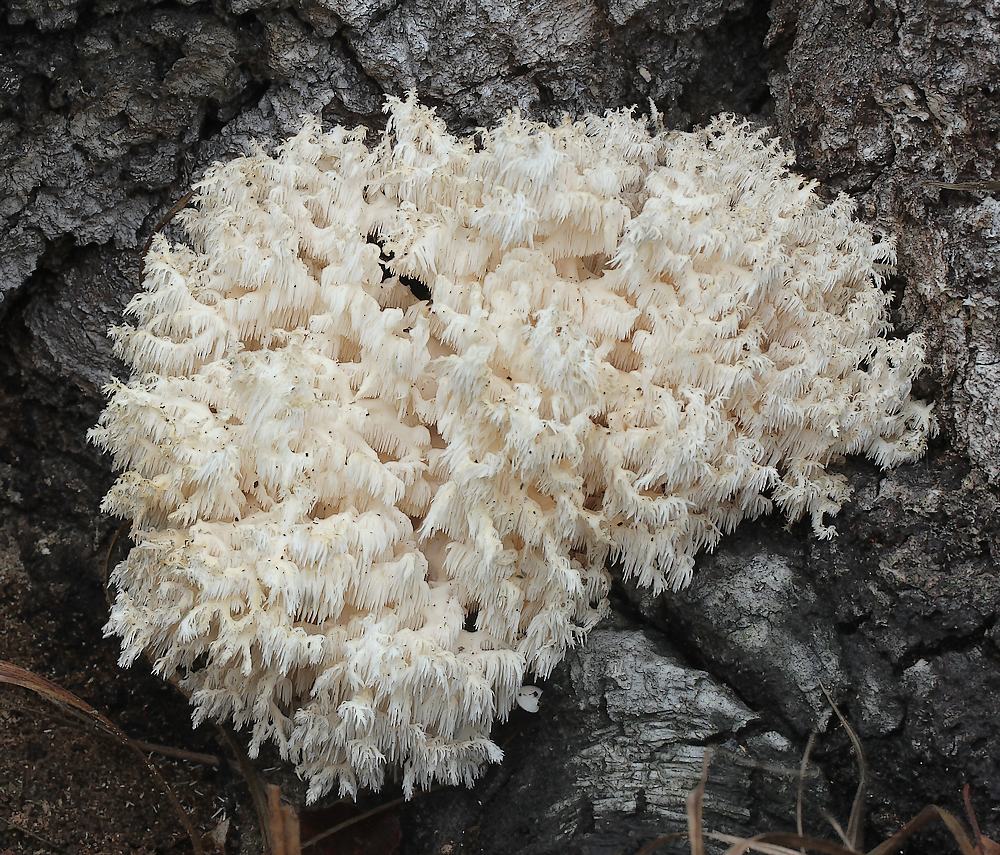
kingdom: Fungi
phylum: Basidiomycota
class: Agaricomycetes
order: Russulales
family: Hericiaceae
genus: Hericium
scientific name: Hericium coralloides
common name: koralpigsvamp
